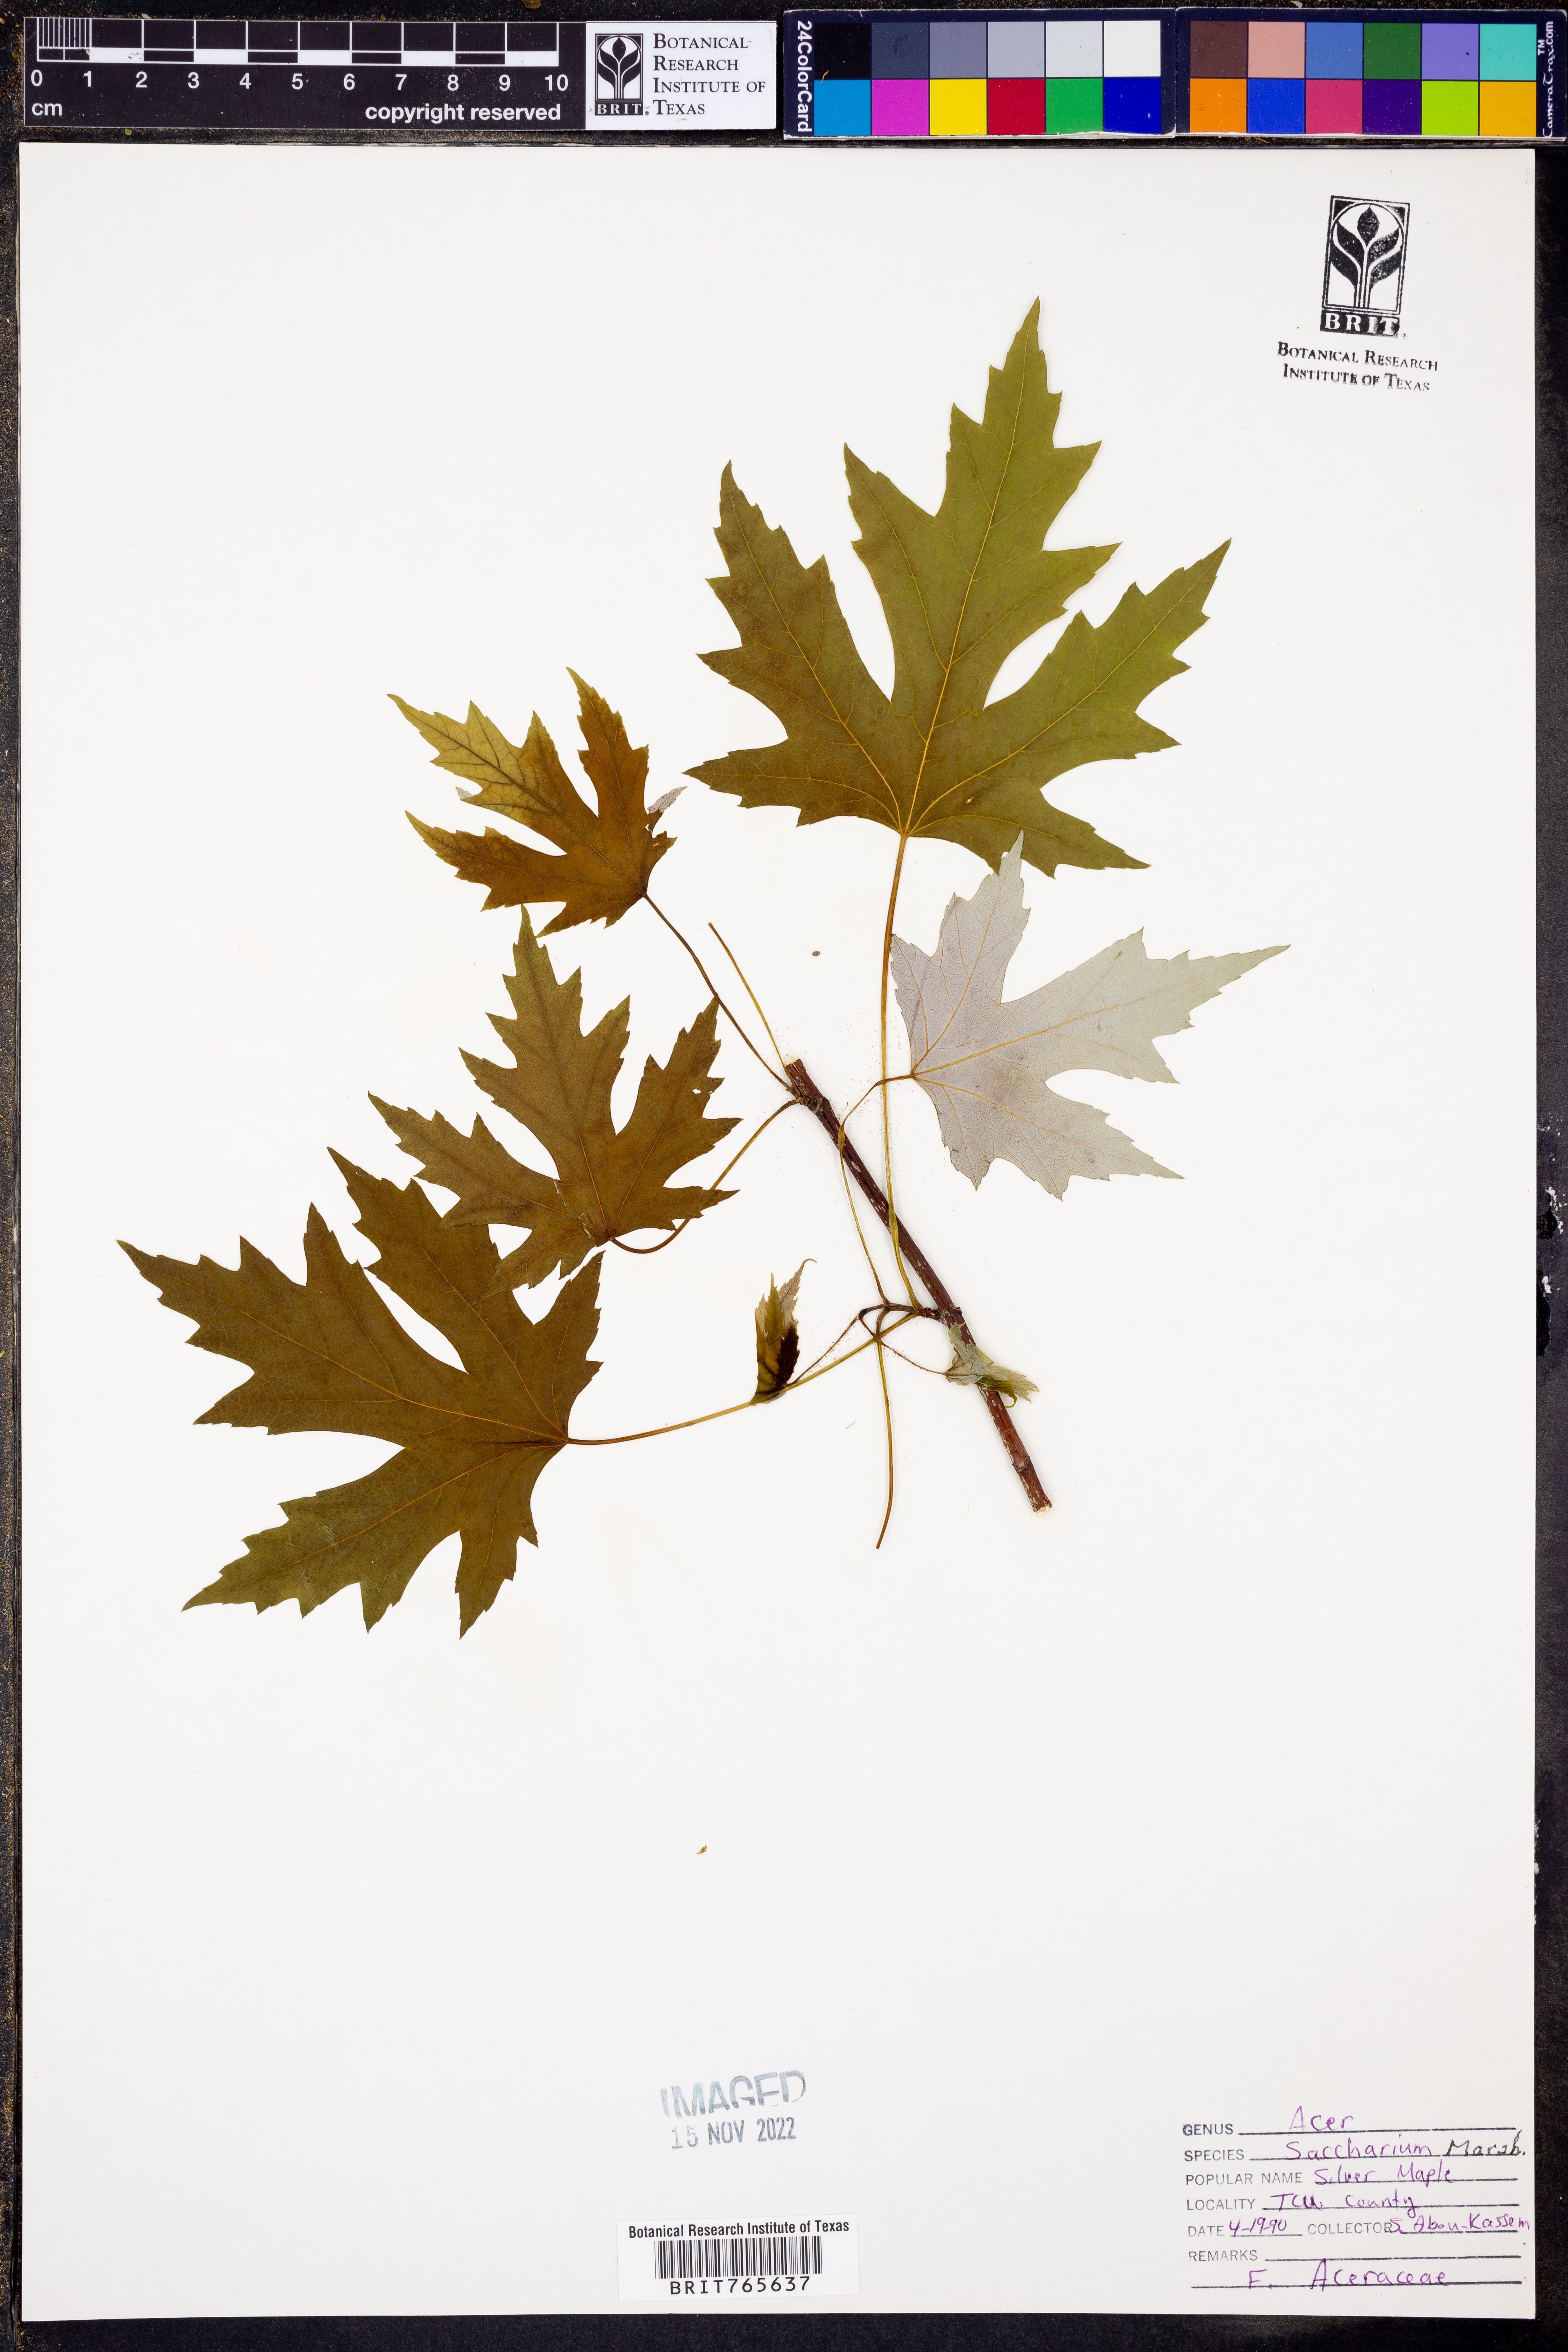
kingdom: Plantae
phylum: Tracheophyta
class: Magnoliopsida
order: Sapindales
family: Sapindaceae
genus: Acer
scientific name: Acer saccharinum
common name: Silver maple
